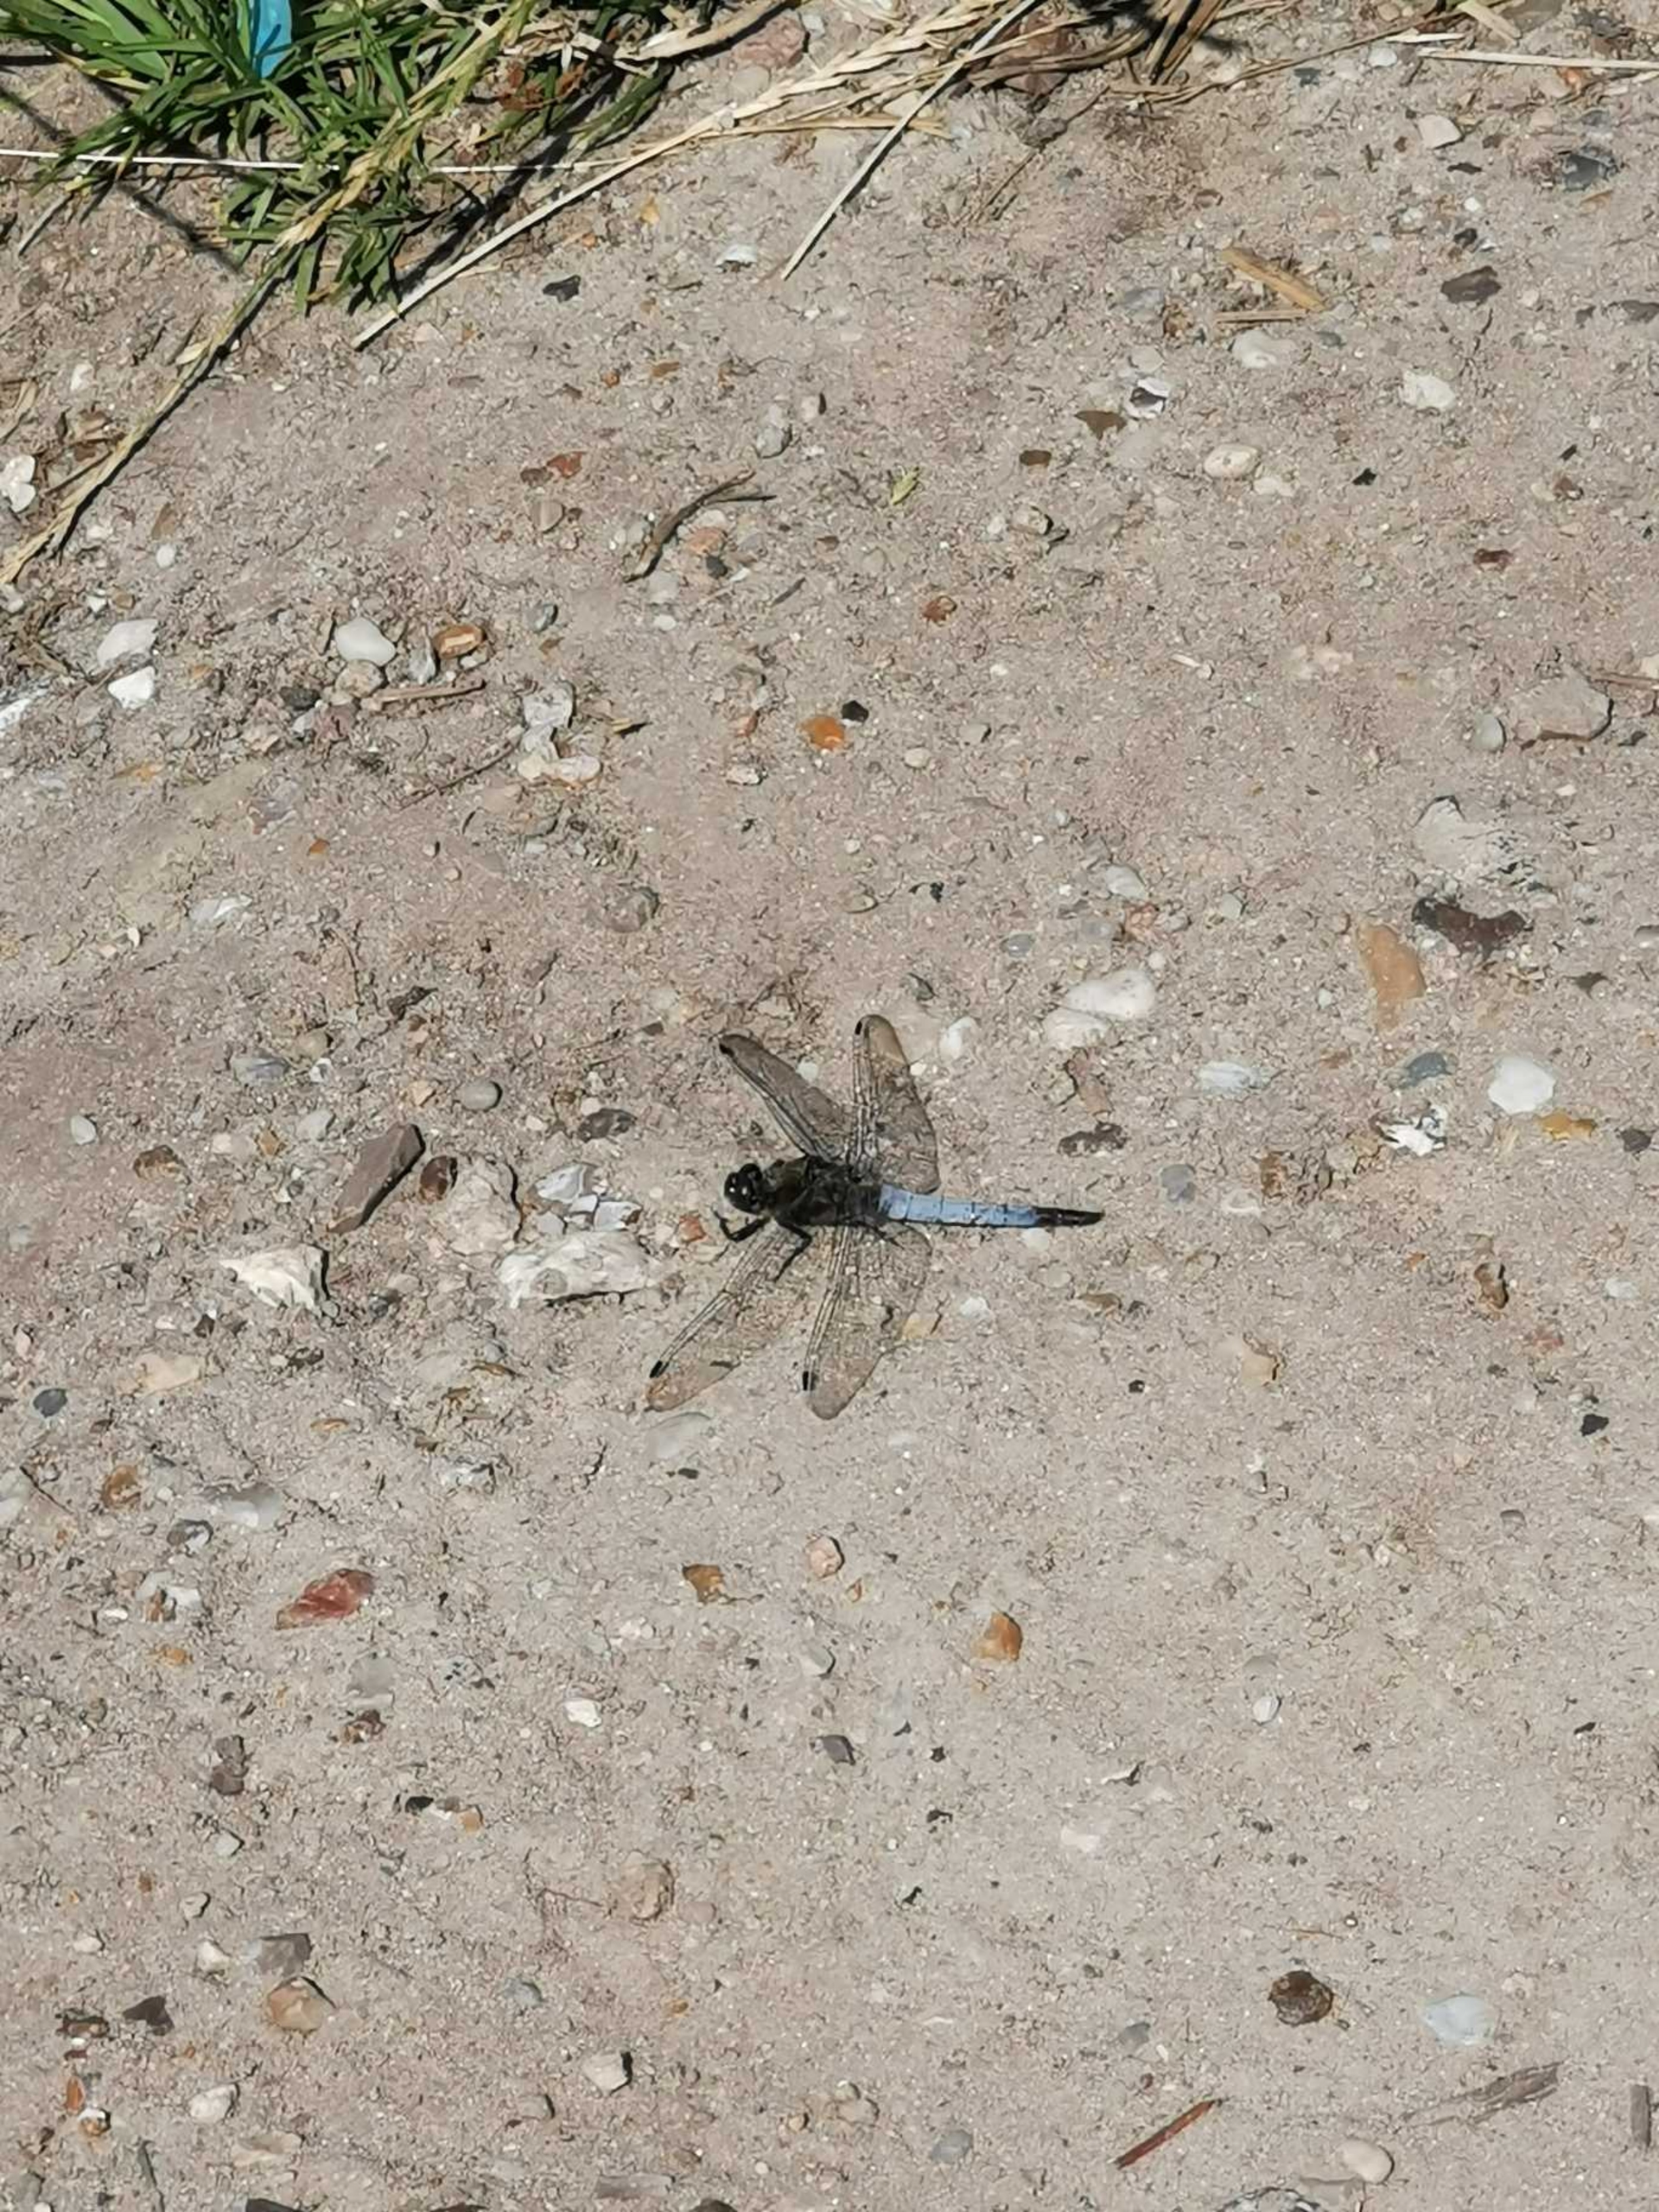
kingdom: Animalia
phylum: Arthropoda
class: Insecta
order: Odonata
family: Libellulidae
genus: Orthetrum
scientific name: Orthetrum cancellatum
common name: Stor blåpil
